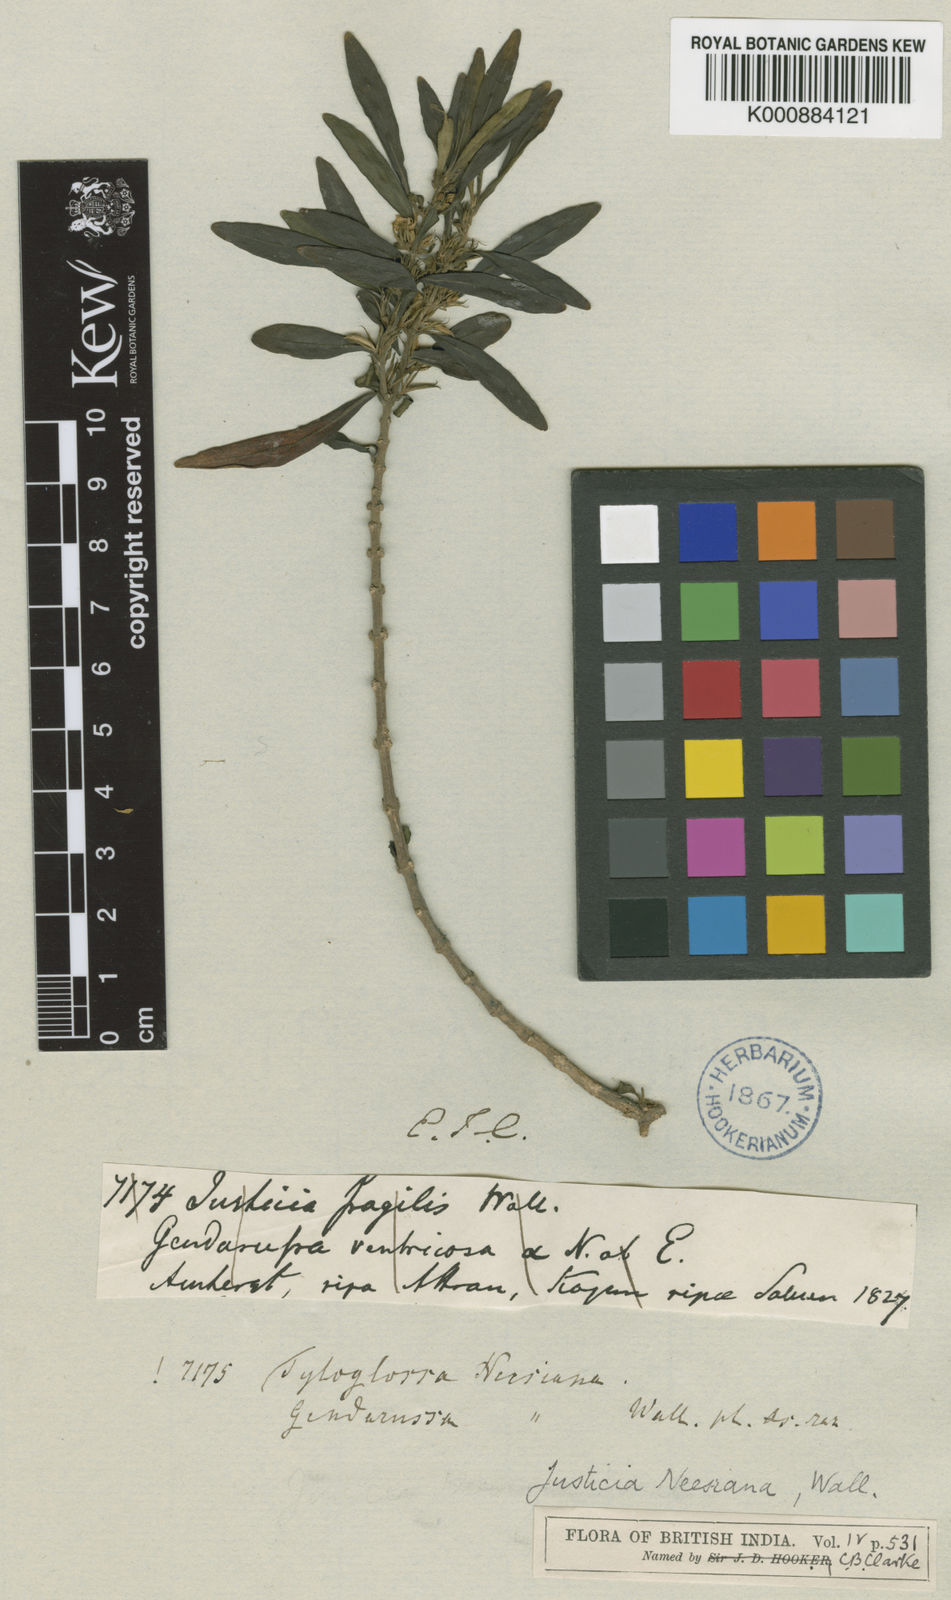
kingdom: Plantae
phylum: Tracheophyta
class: Magnoliopsida
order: Lamiales
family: Acanthaceae
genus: Justicia
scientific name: Justicia
